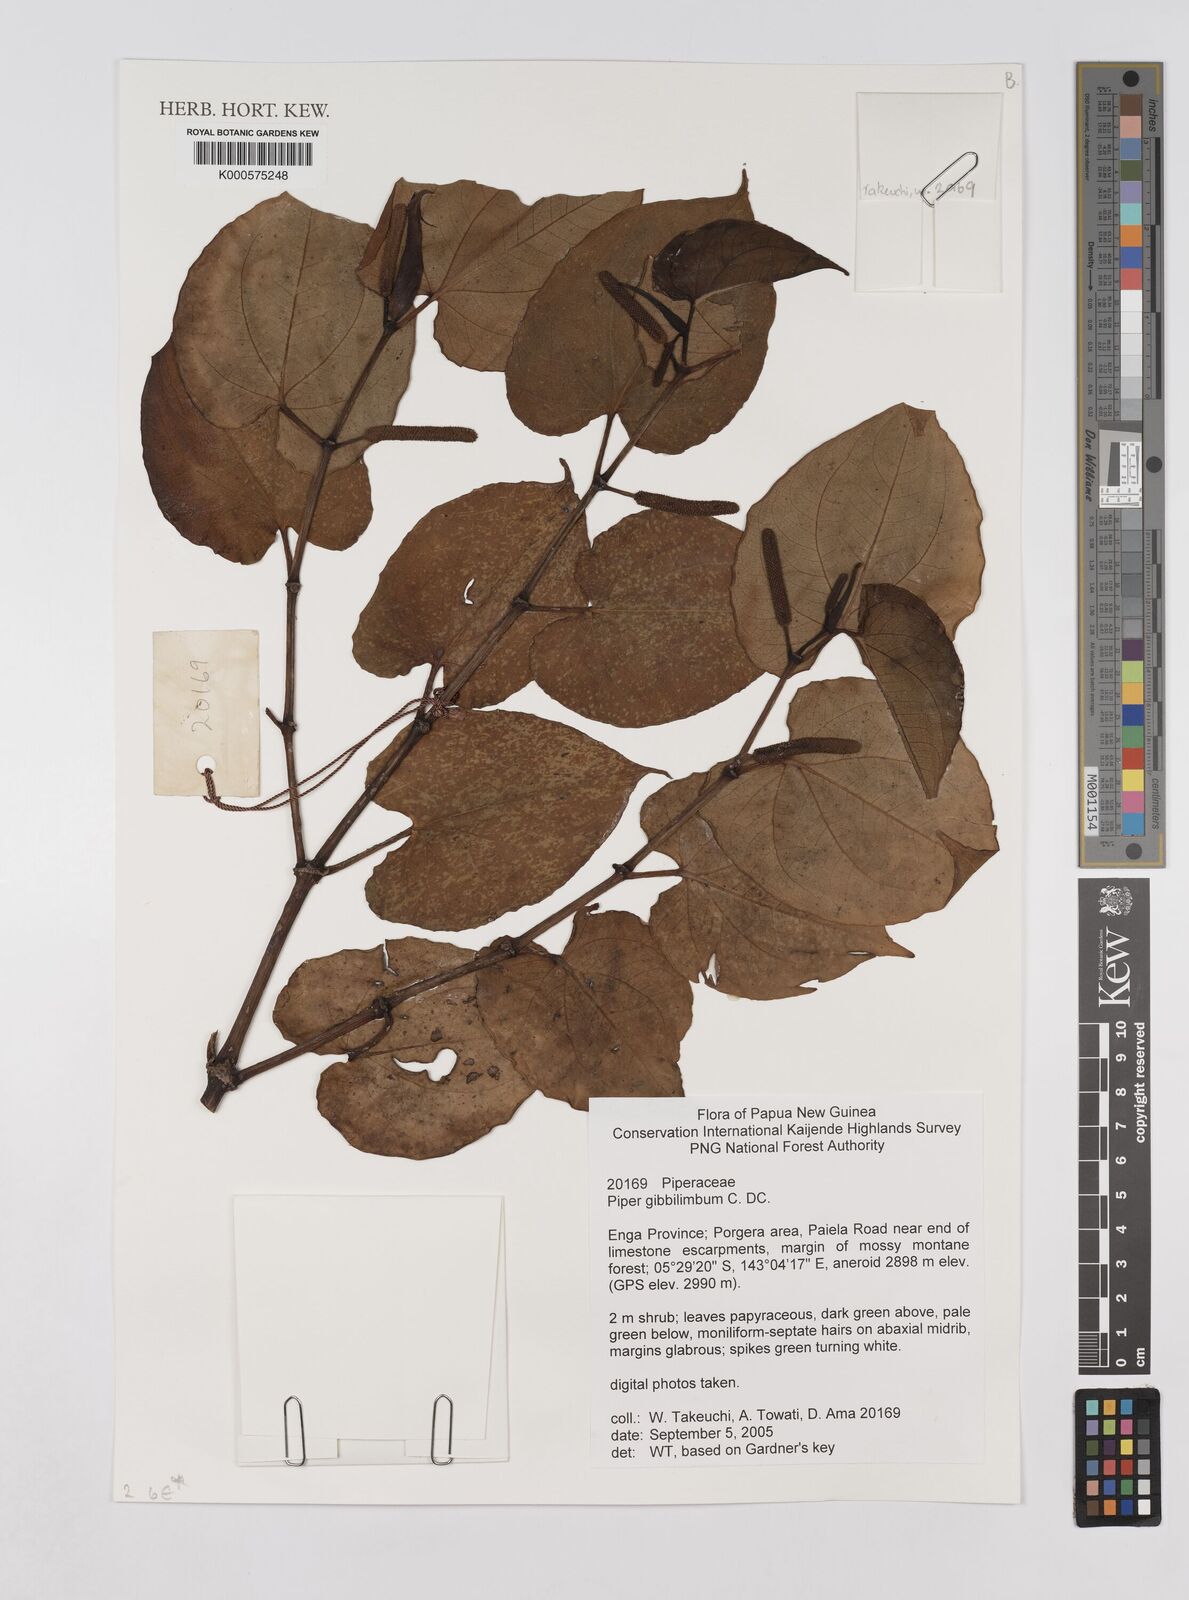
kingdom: Plantae
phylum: Tracheophyta
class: Magnoliopsida
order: Piperales
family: Piperaceae
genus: Piper
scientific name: Piper gibbilimbum
